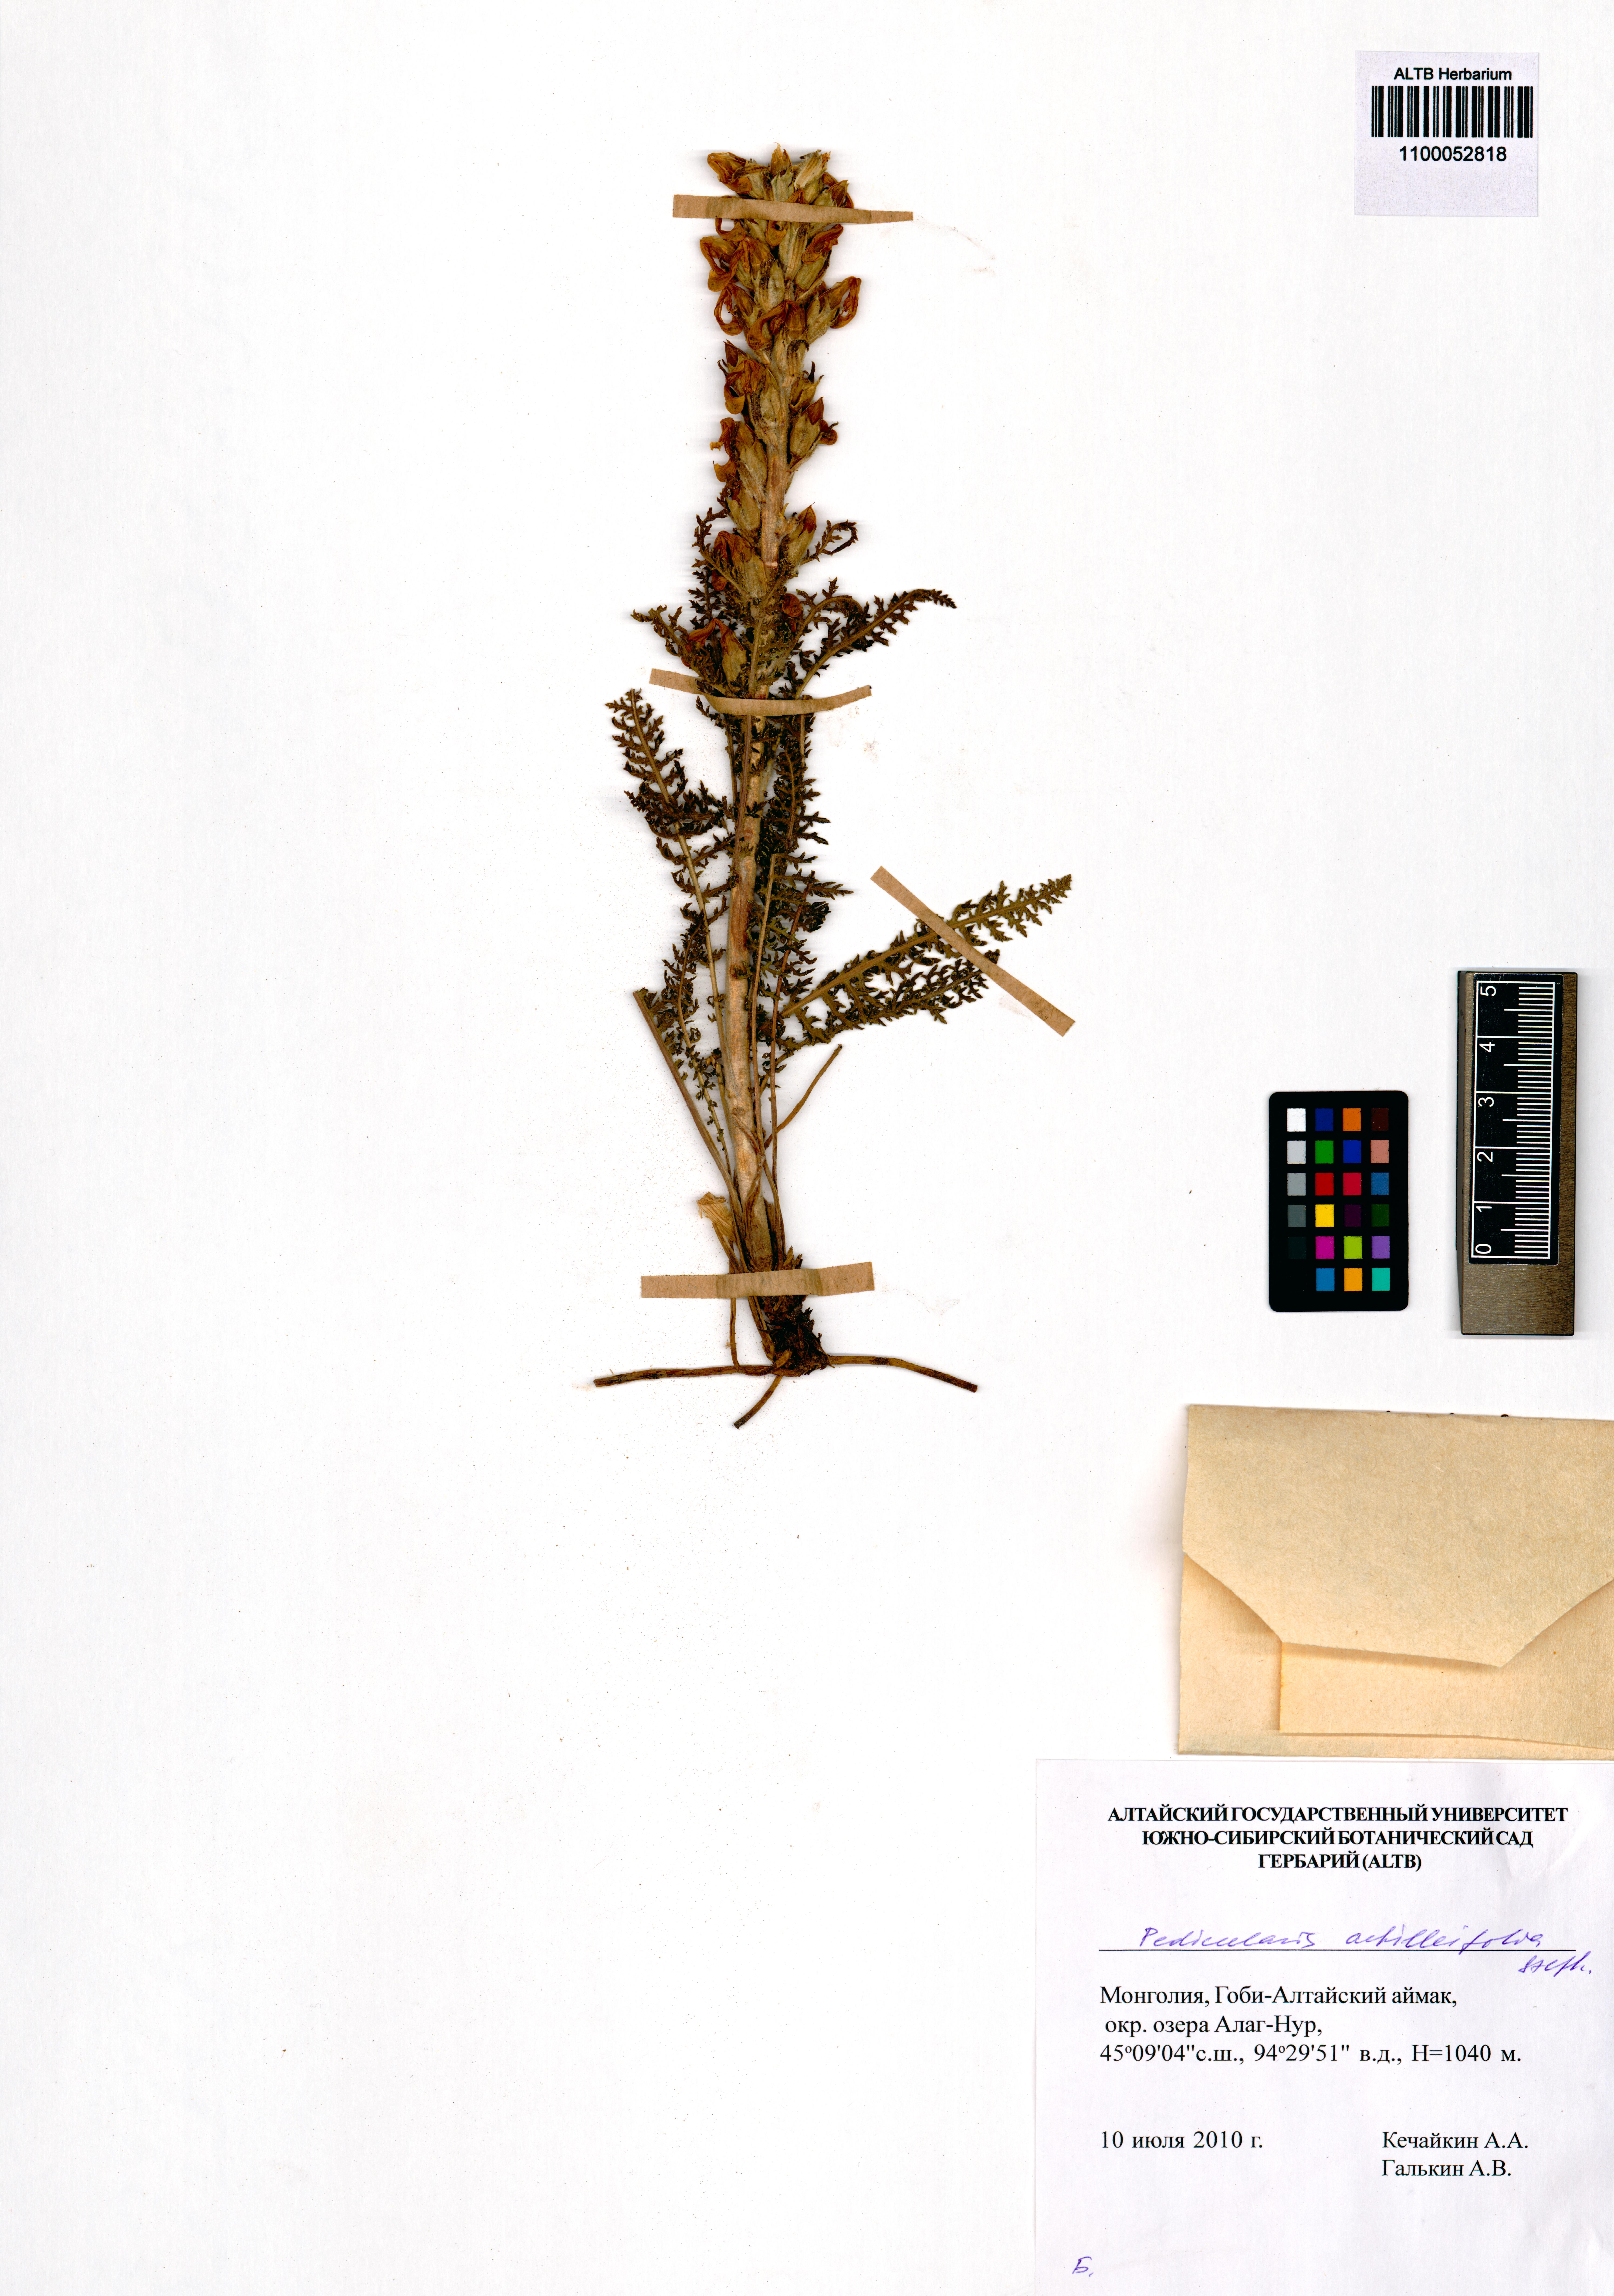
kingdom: Plantae
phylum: Tracheophyta
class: Magnoliopsida
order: Lamiales
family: Orobanchaceae
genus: Pedicularis
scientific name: Pedicularis achilleifolia
